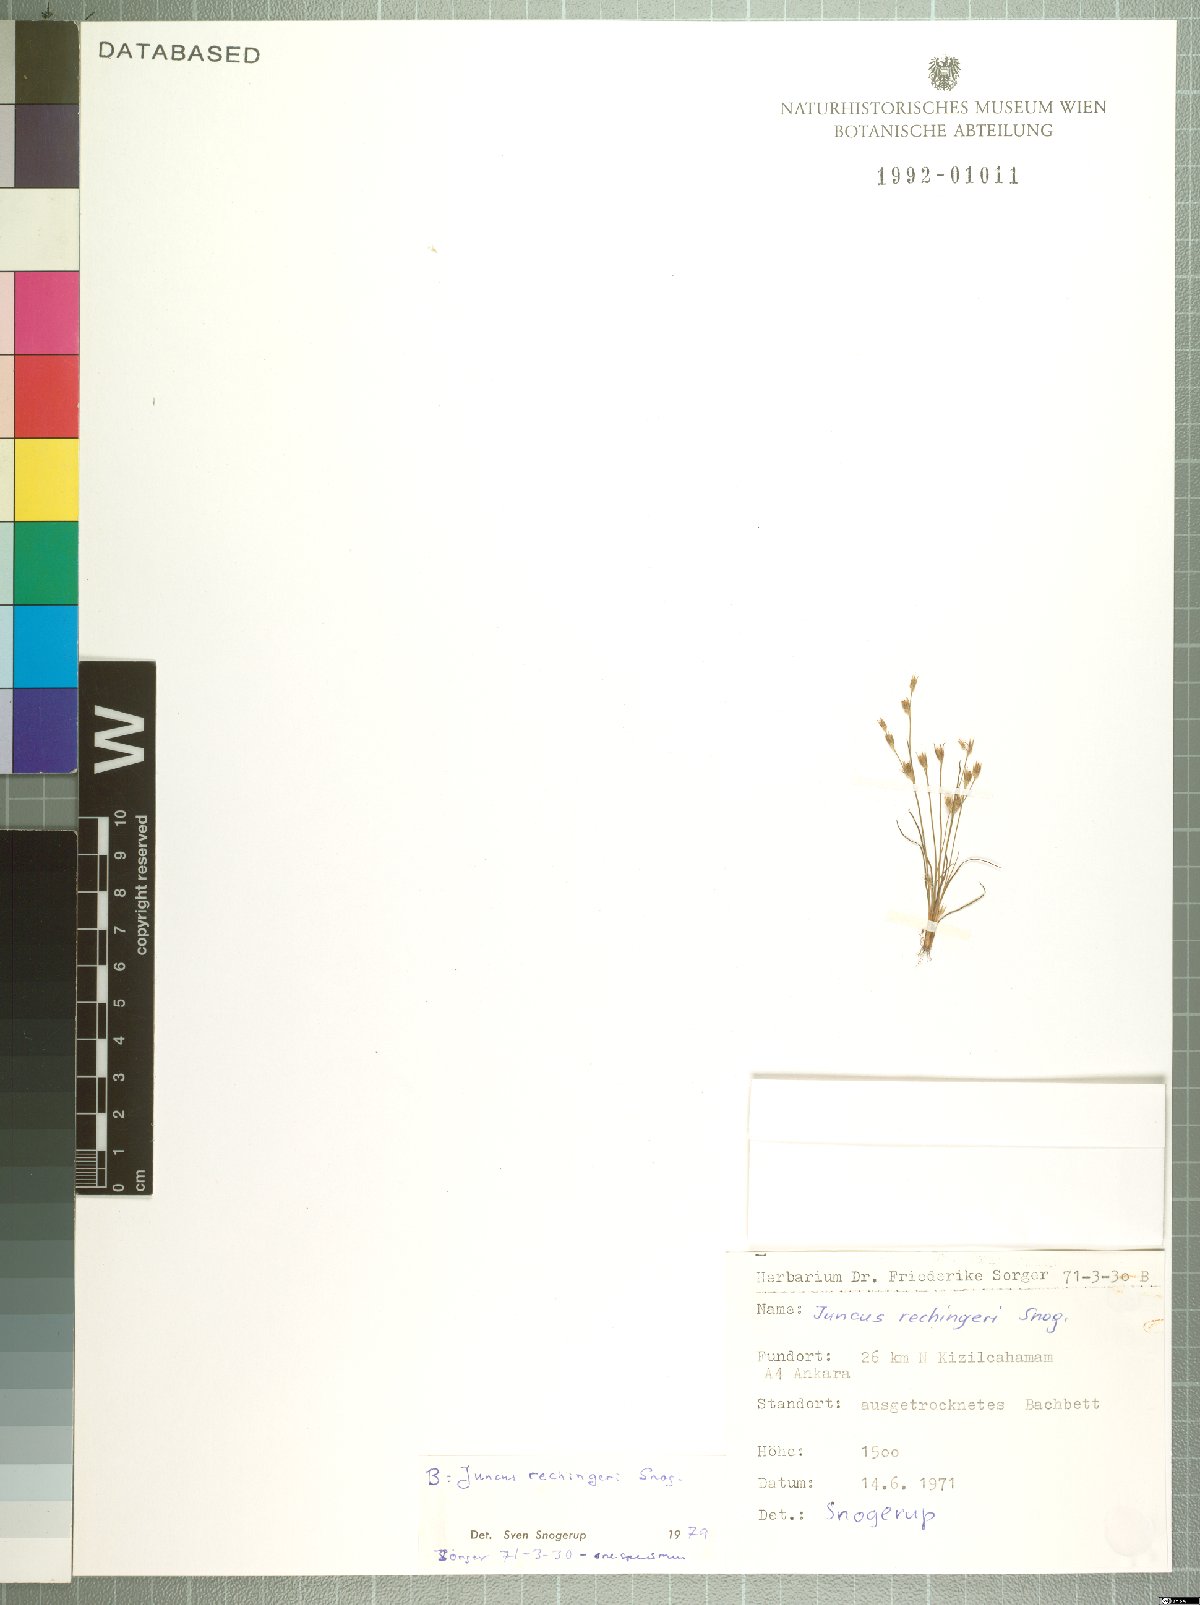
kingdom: Plantae
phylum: Tracheophyta
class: Liliopsida
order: Poales
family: Juncaceae
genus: Juncus
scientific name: Juncus rechingeri
